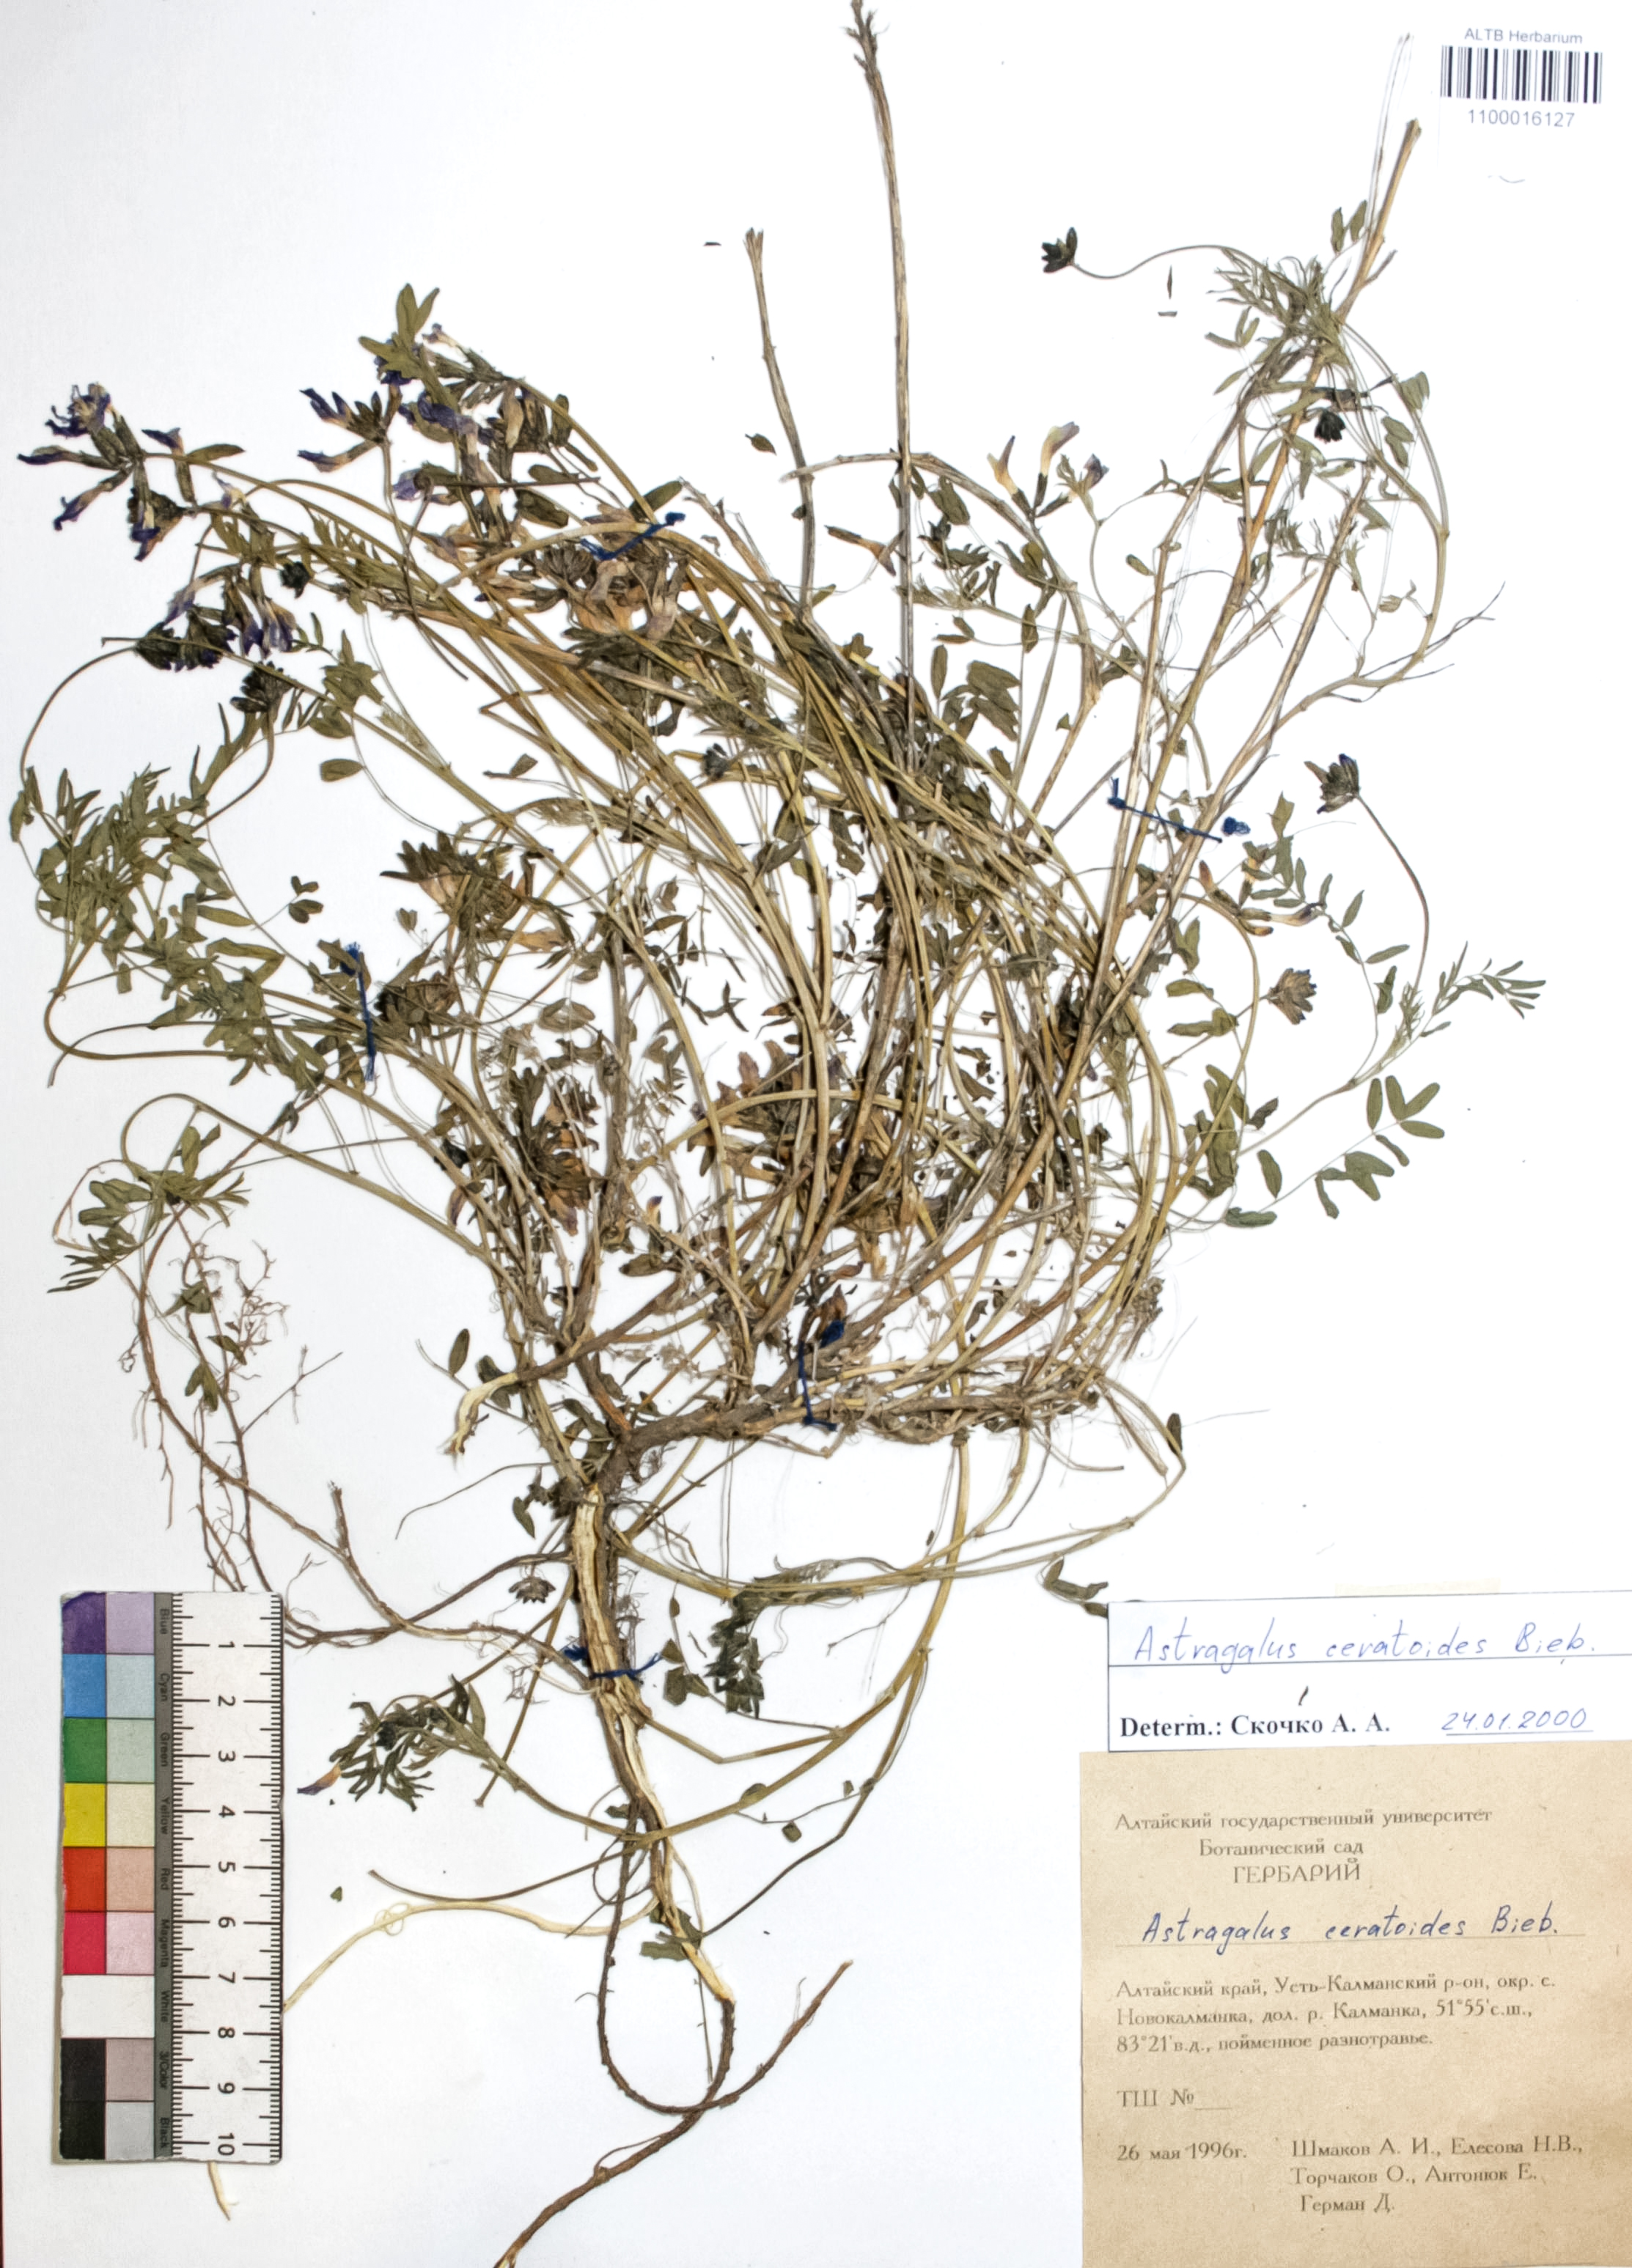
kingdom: Plantae
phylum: Tracheophyta
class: Magnoliopsida
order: Fabales
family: Fabaceae
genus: Astragalus
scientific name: Astragalus ceratoides
